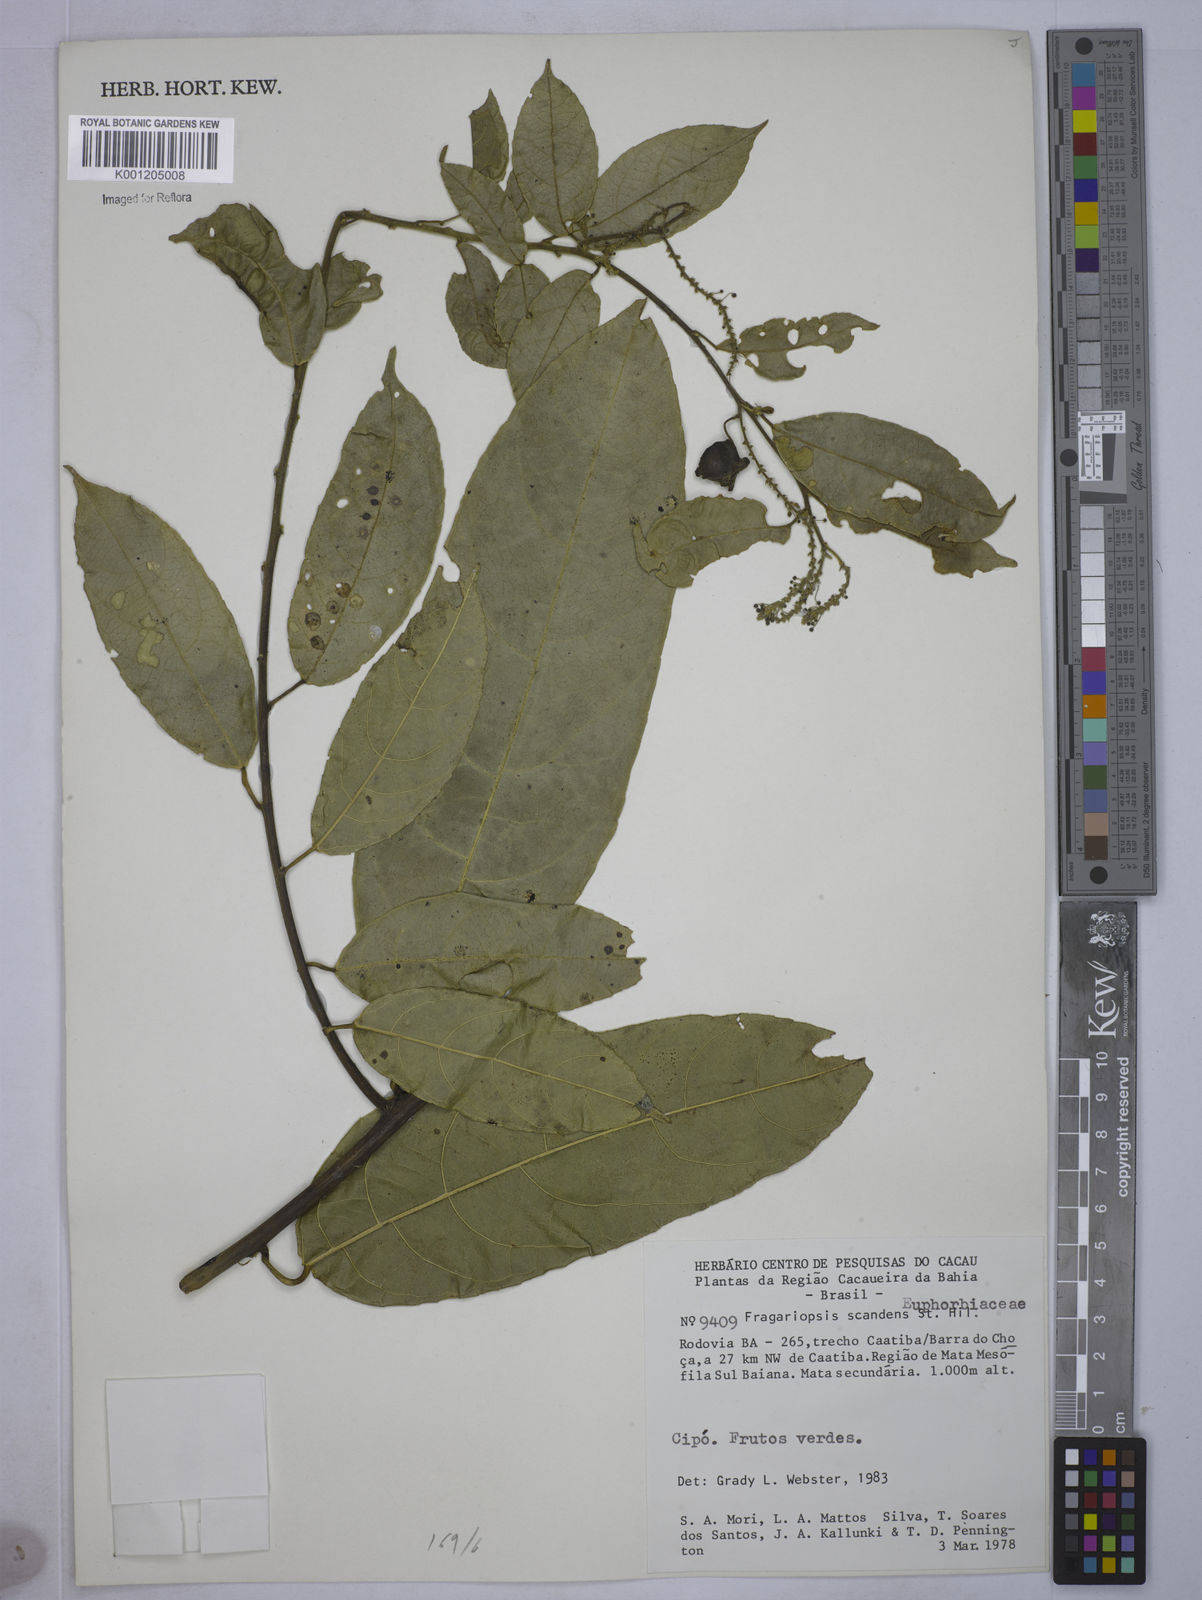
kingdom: Plantae
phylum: Tracheophyta
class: Magnoliopsida
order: Malpighiales
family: Euphorbiaceae
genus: Plukenetia
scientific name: Plukenetia serrata
